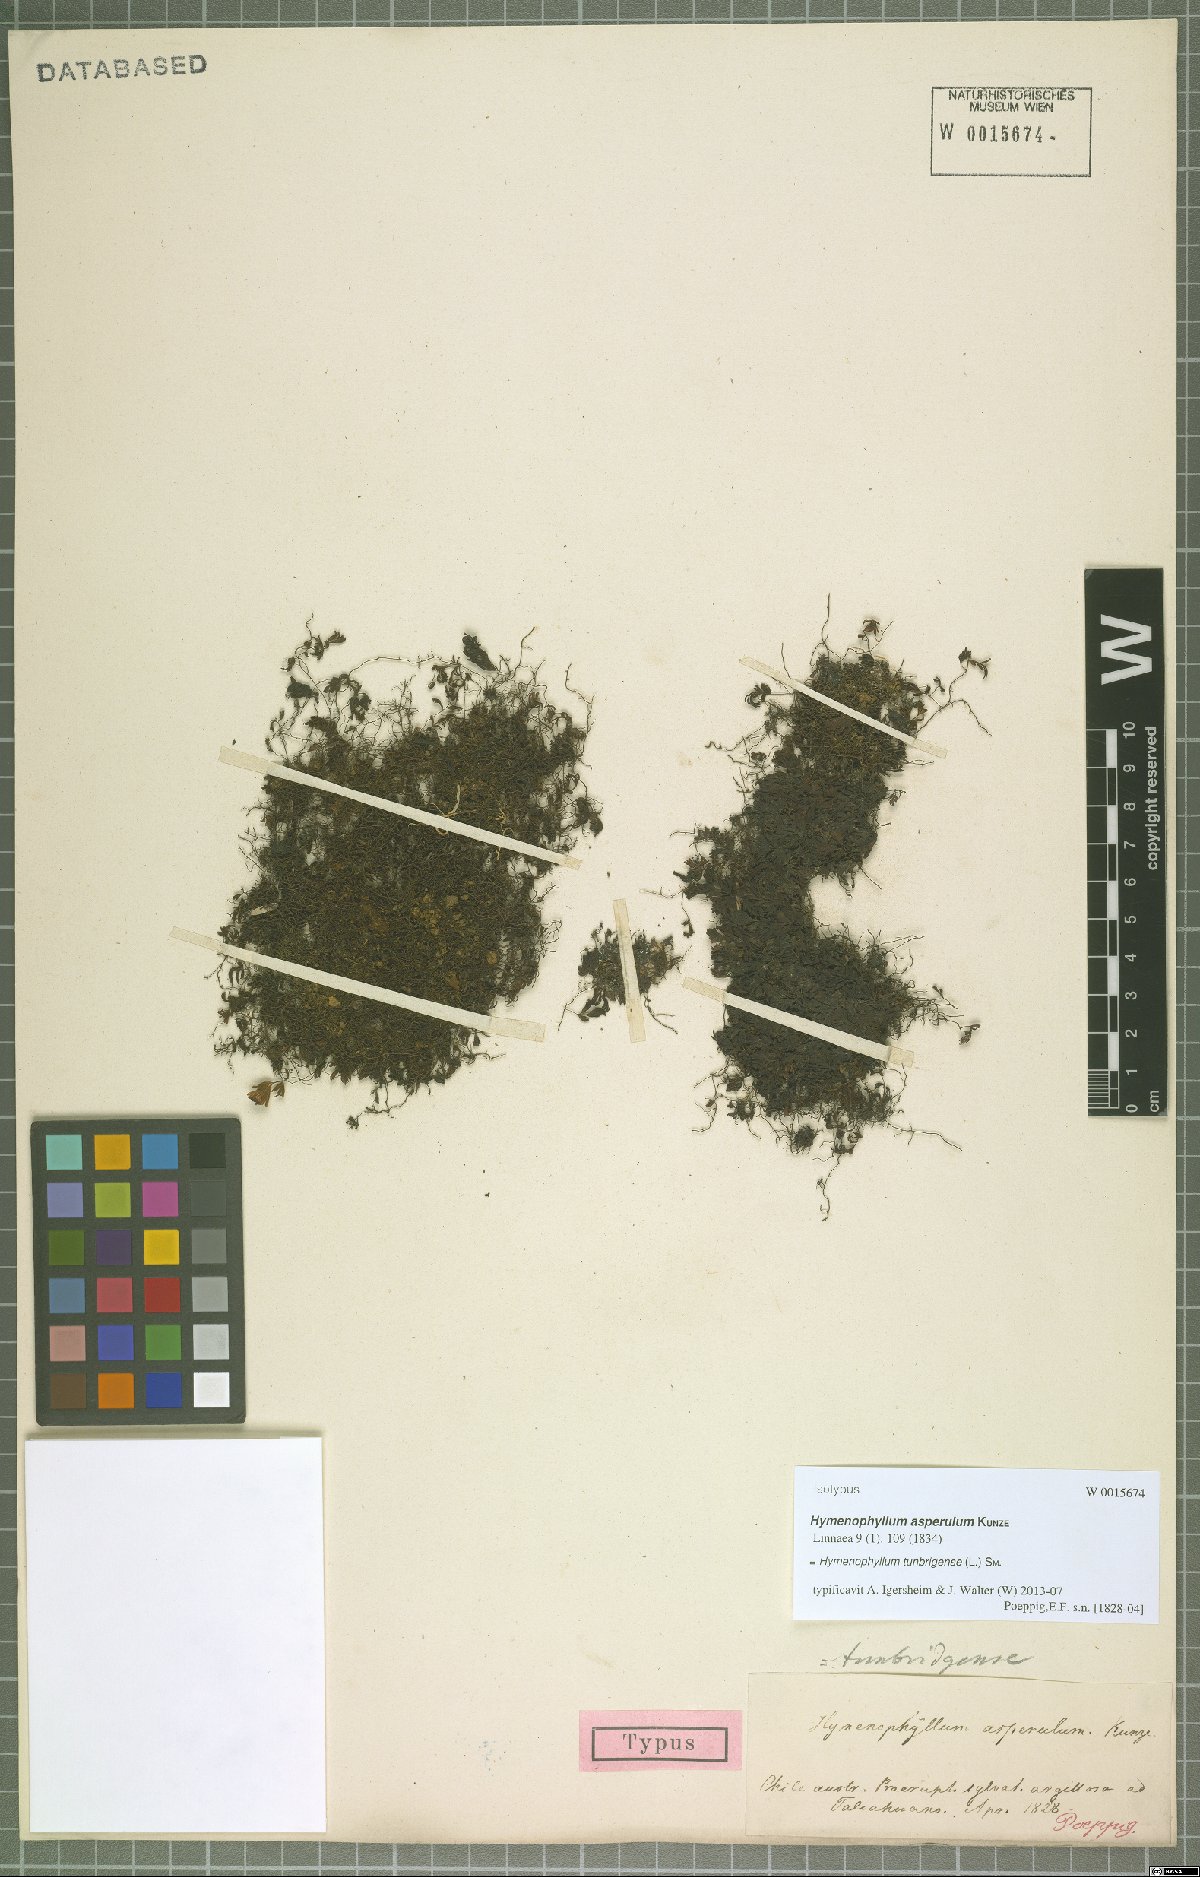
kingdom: Plantae
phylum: Tracheophyta
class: Polypodiopsida
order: Hymenophyllales
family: Hymenophyllaceae
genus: Hymenophyllum
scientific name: Hymenophyllum tunbrigense
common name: Tunbridge filmy fern
